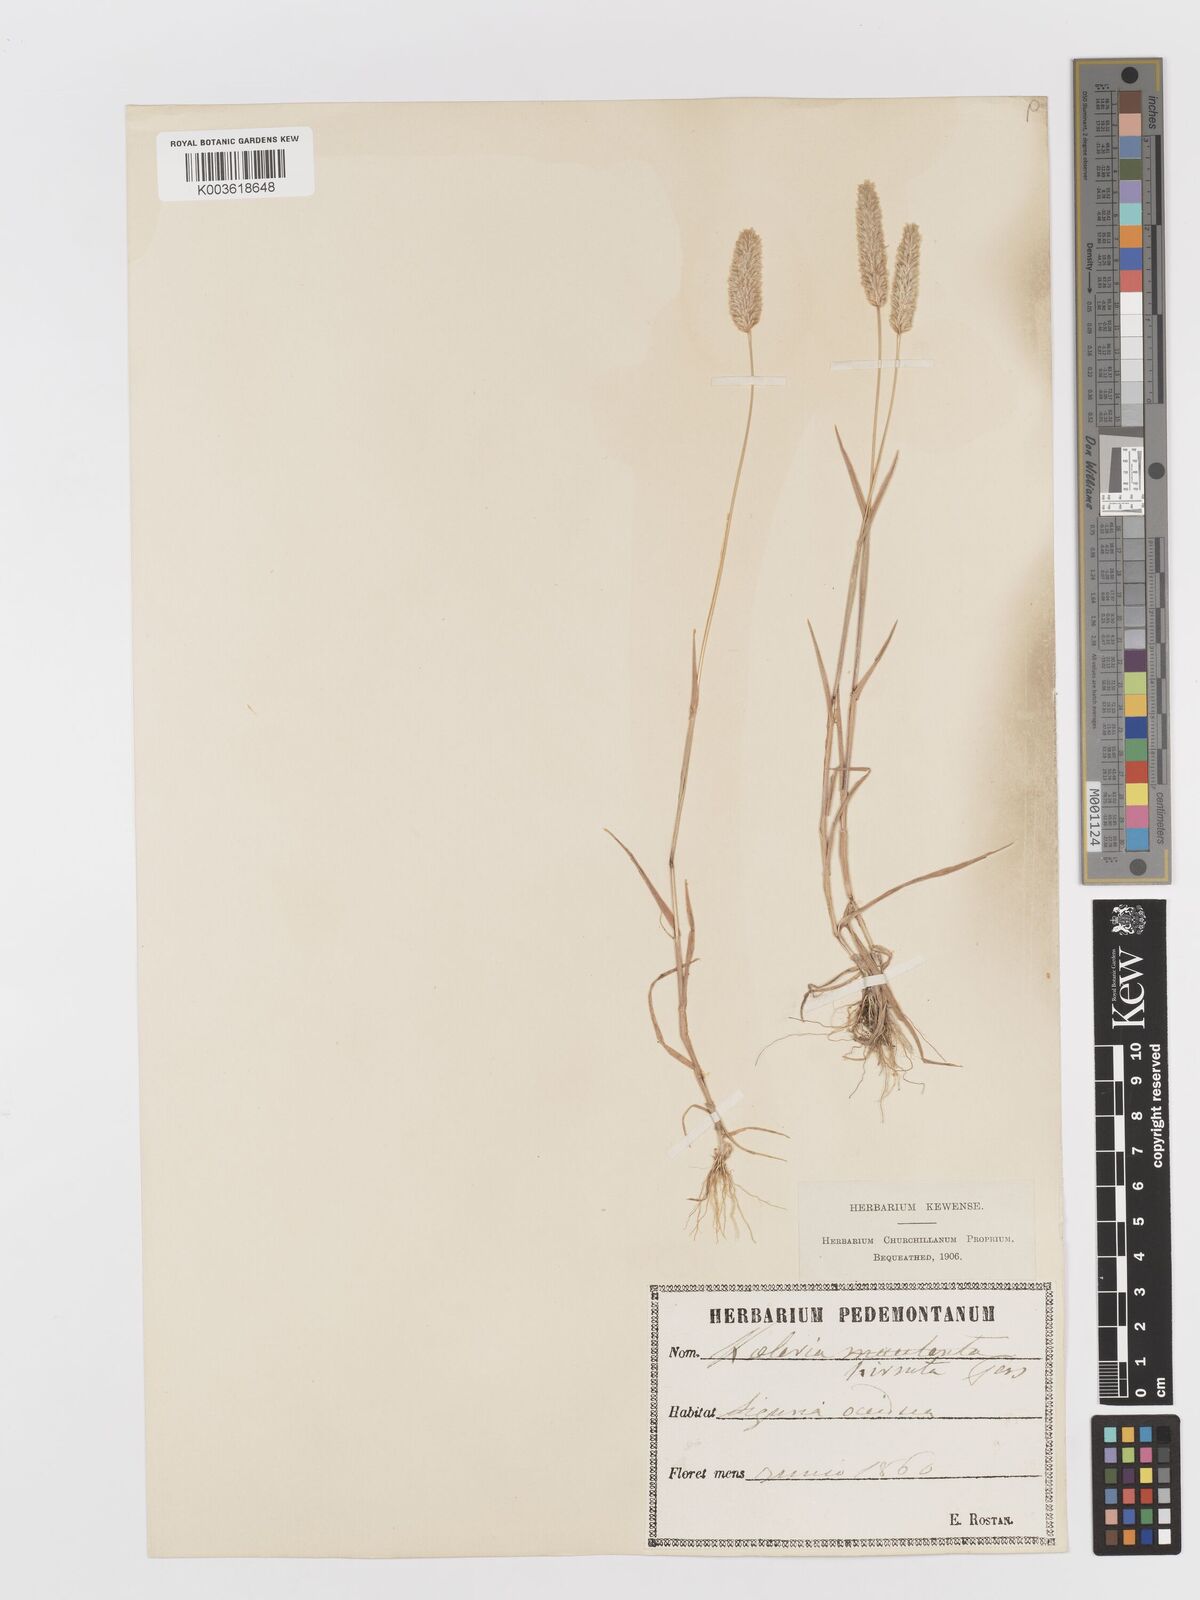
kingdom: Plantae
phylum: Tracheophyta
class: Liliopsida
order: Poales
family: Poaceae
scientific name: Poaceae
